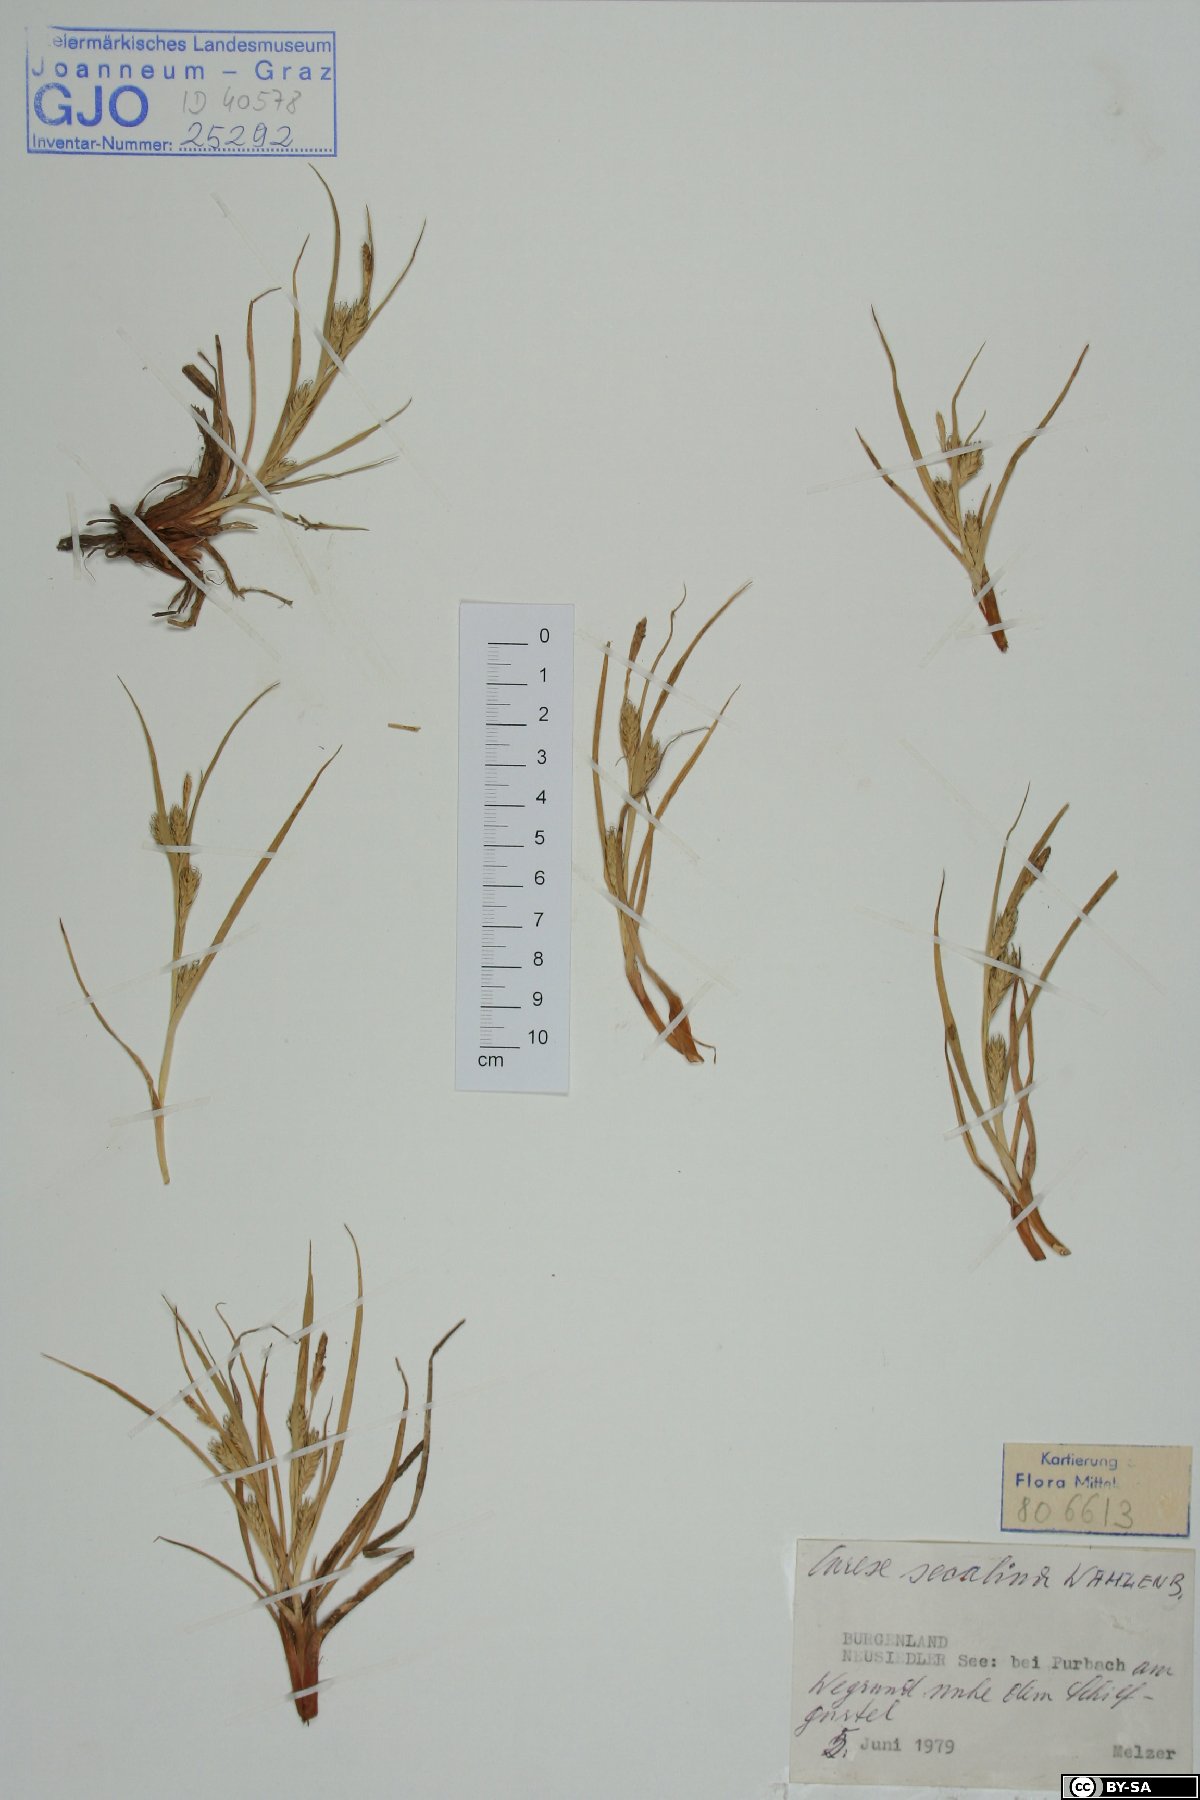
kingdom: Plantae
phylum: Tracheophyta
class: Liliopsida
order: Poales
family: Cyperaceae
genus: Carex
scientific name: Carex secalina
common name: Rye sedge
